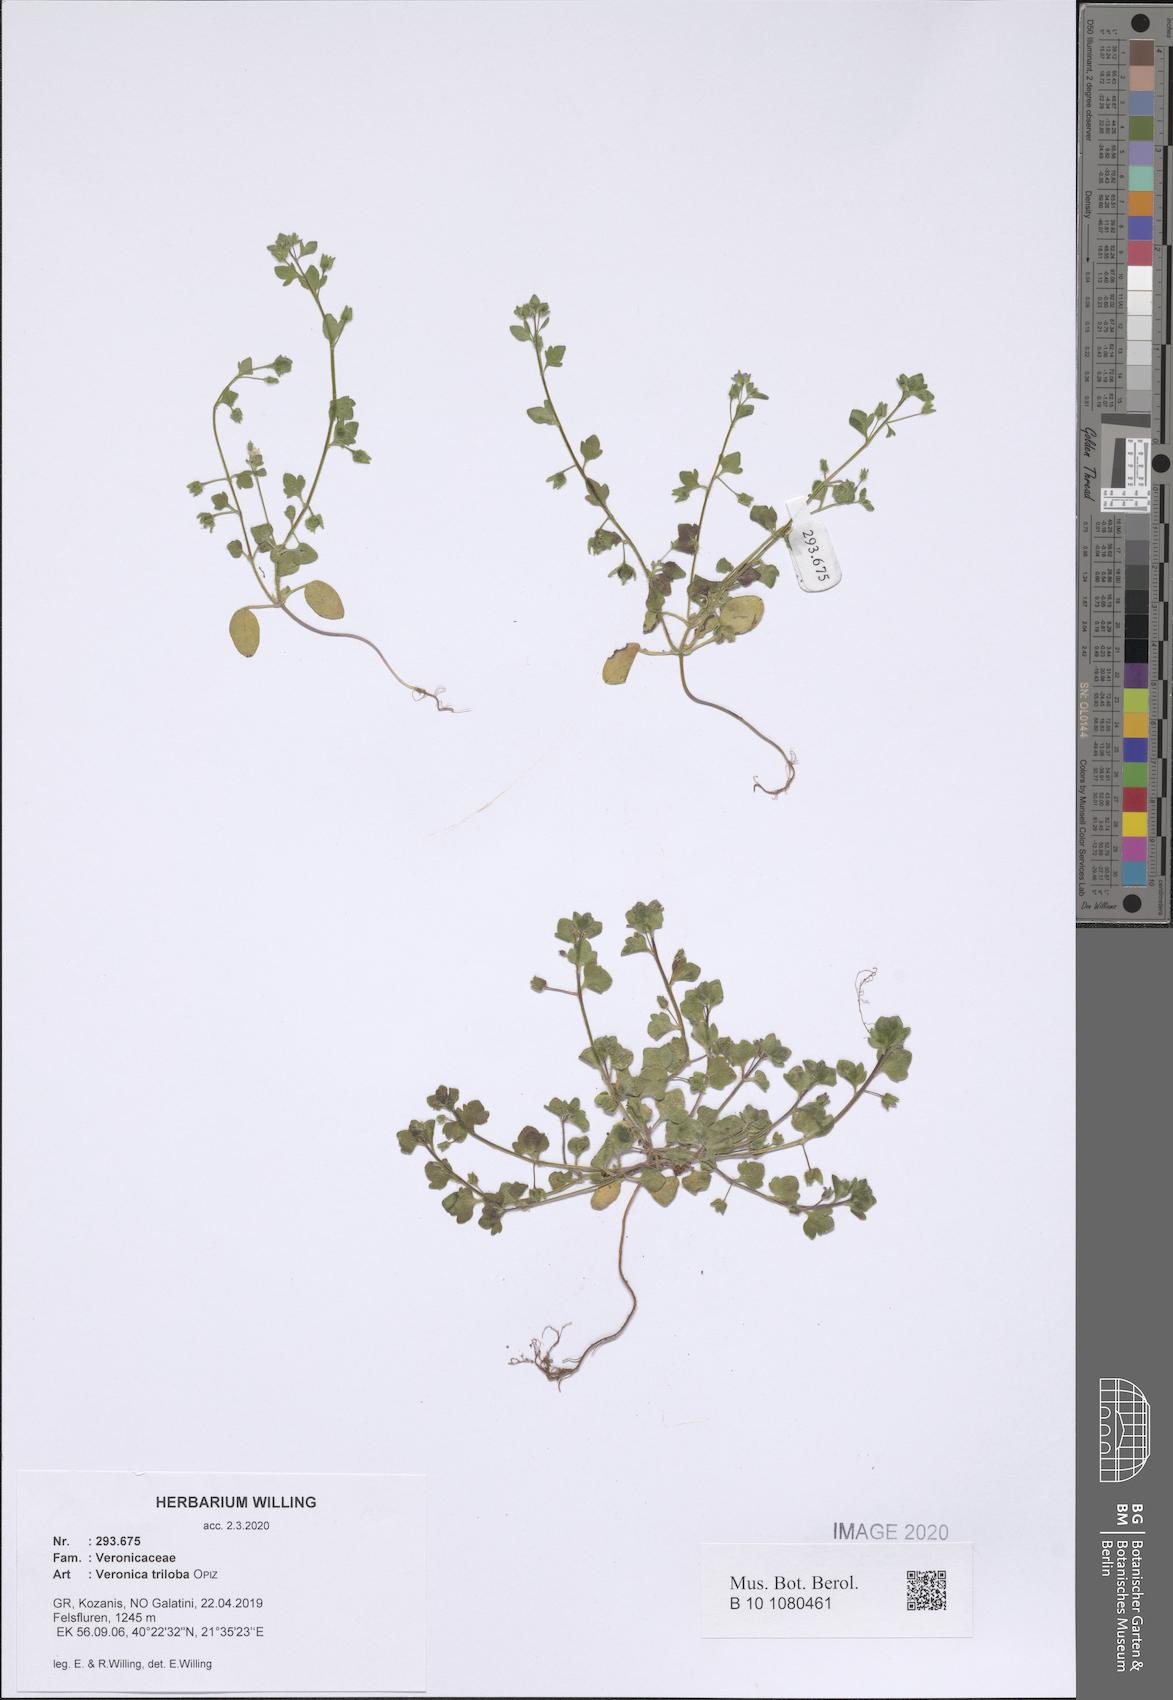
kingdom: Plantae
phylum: Tracheophyta
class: Magnoliopsida
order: Lamiales
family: Plantaginaceae
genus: Veronica
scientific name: Veronica triloba
